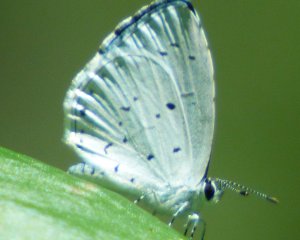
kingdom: Animalia
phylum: Arthropoda
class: Insecta
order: Lepidoptera
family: Lycaenidae
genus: Cyaniris
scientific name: Cyaniris neglecta
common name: Summer Azure
